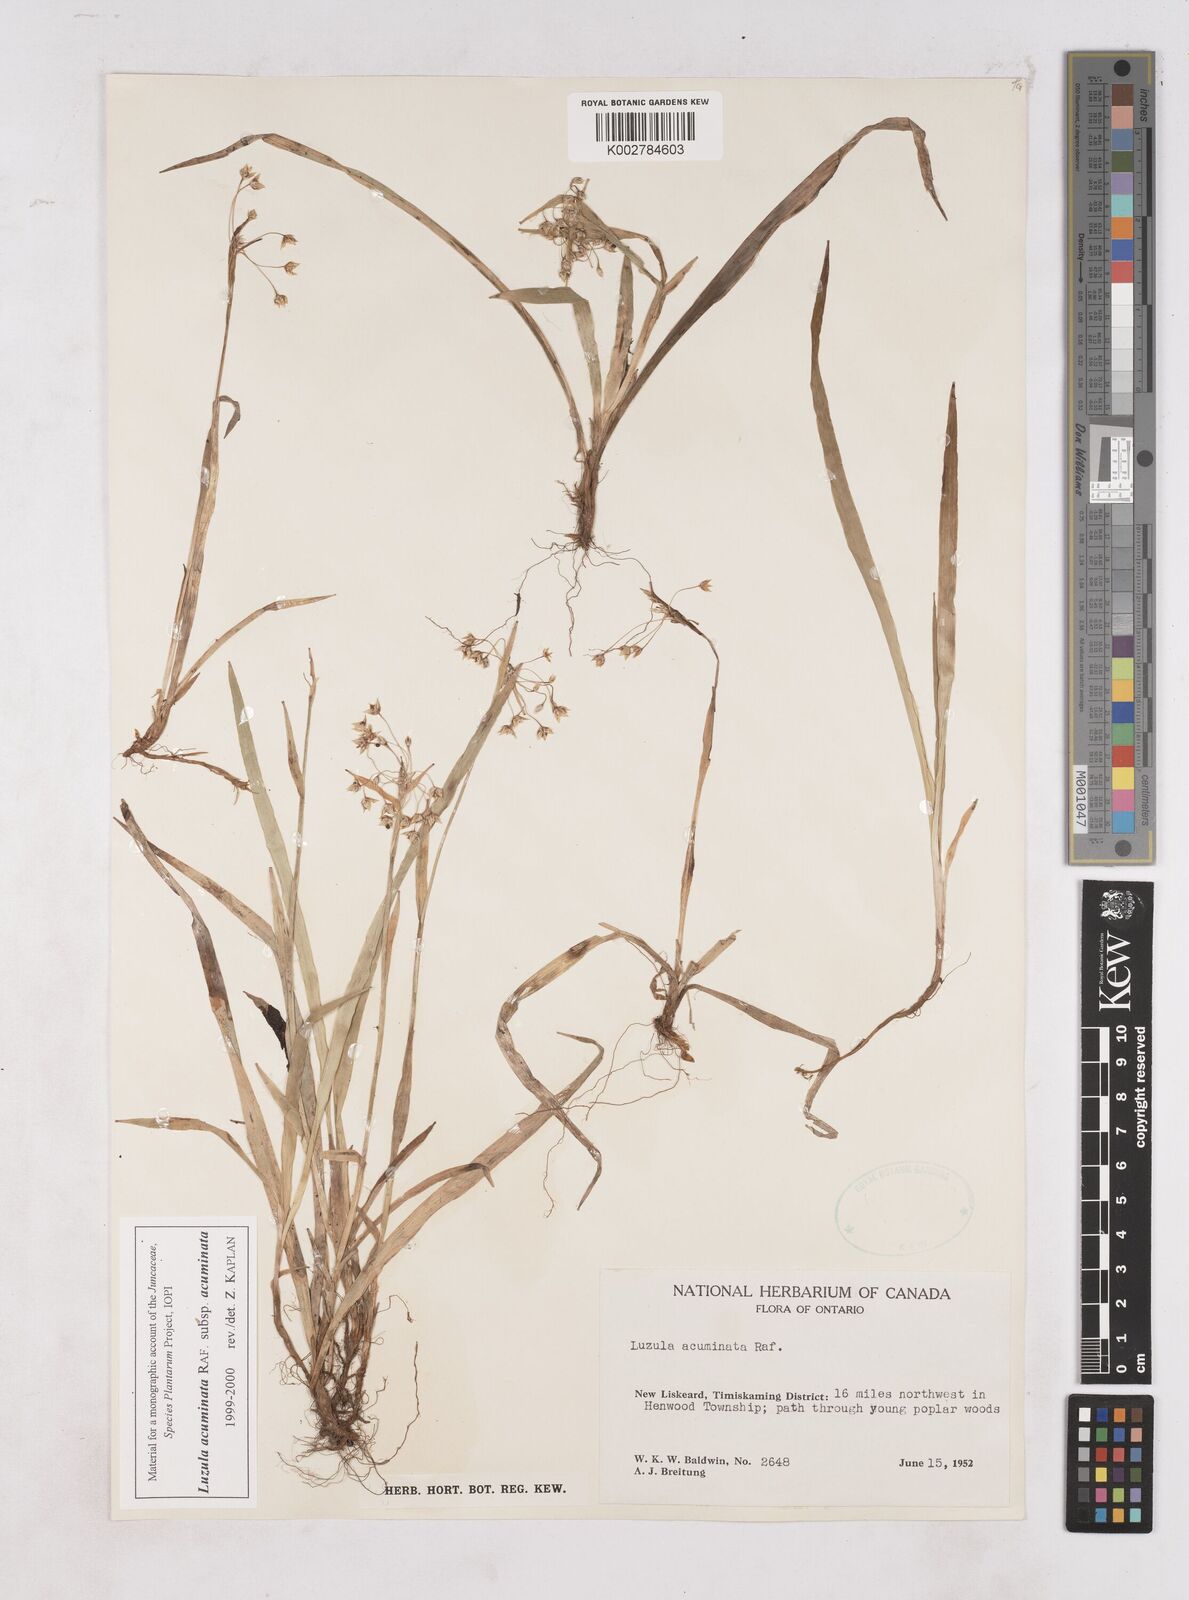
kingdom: Plantae
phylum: Tracheophyta
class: Liliopsida
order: Poales
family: Juncaceae
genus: Luzula
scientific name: Luzula acuminata
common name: Hairy woodrush
